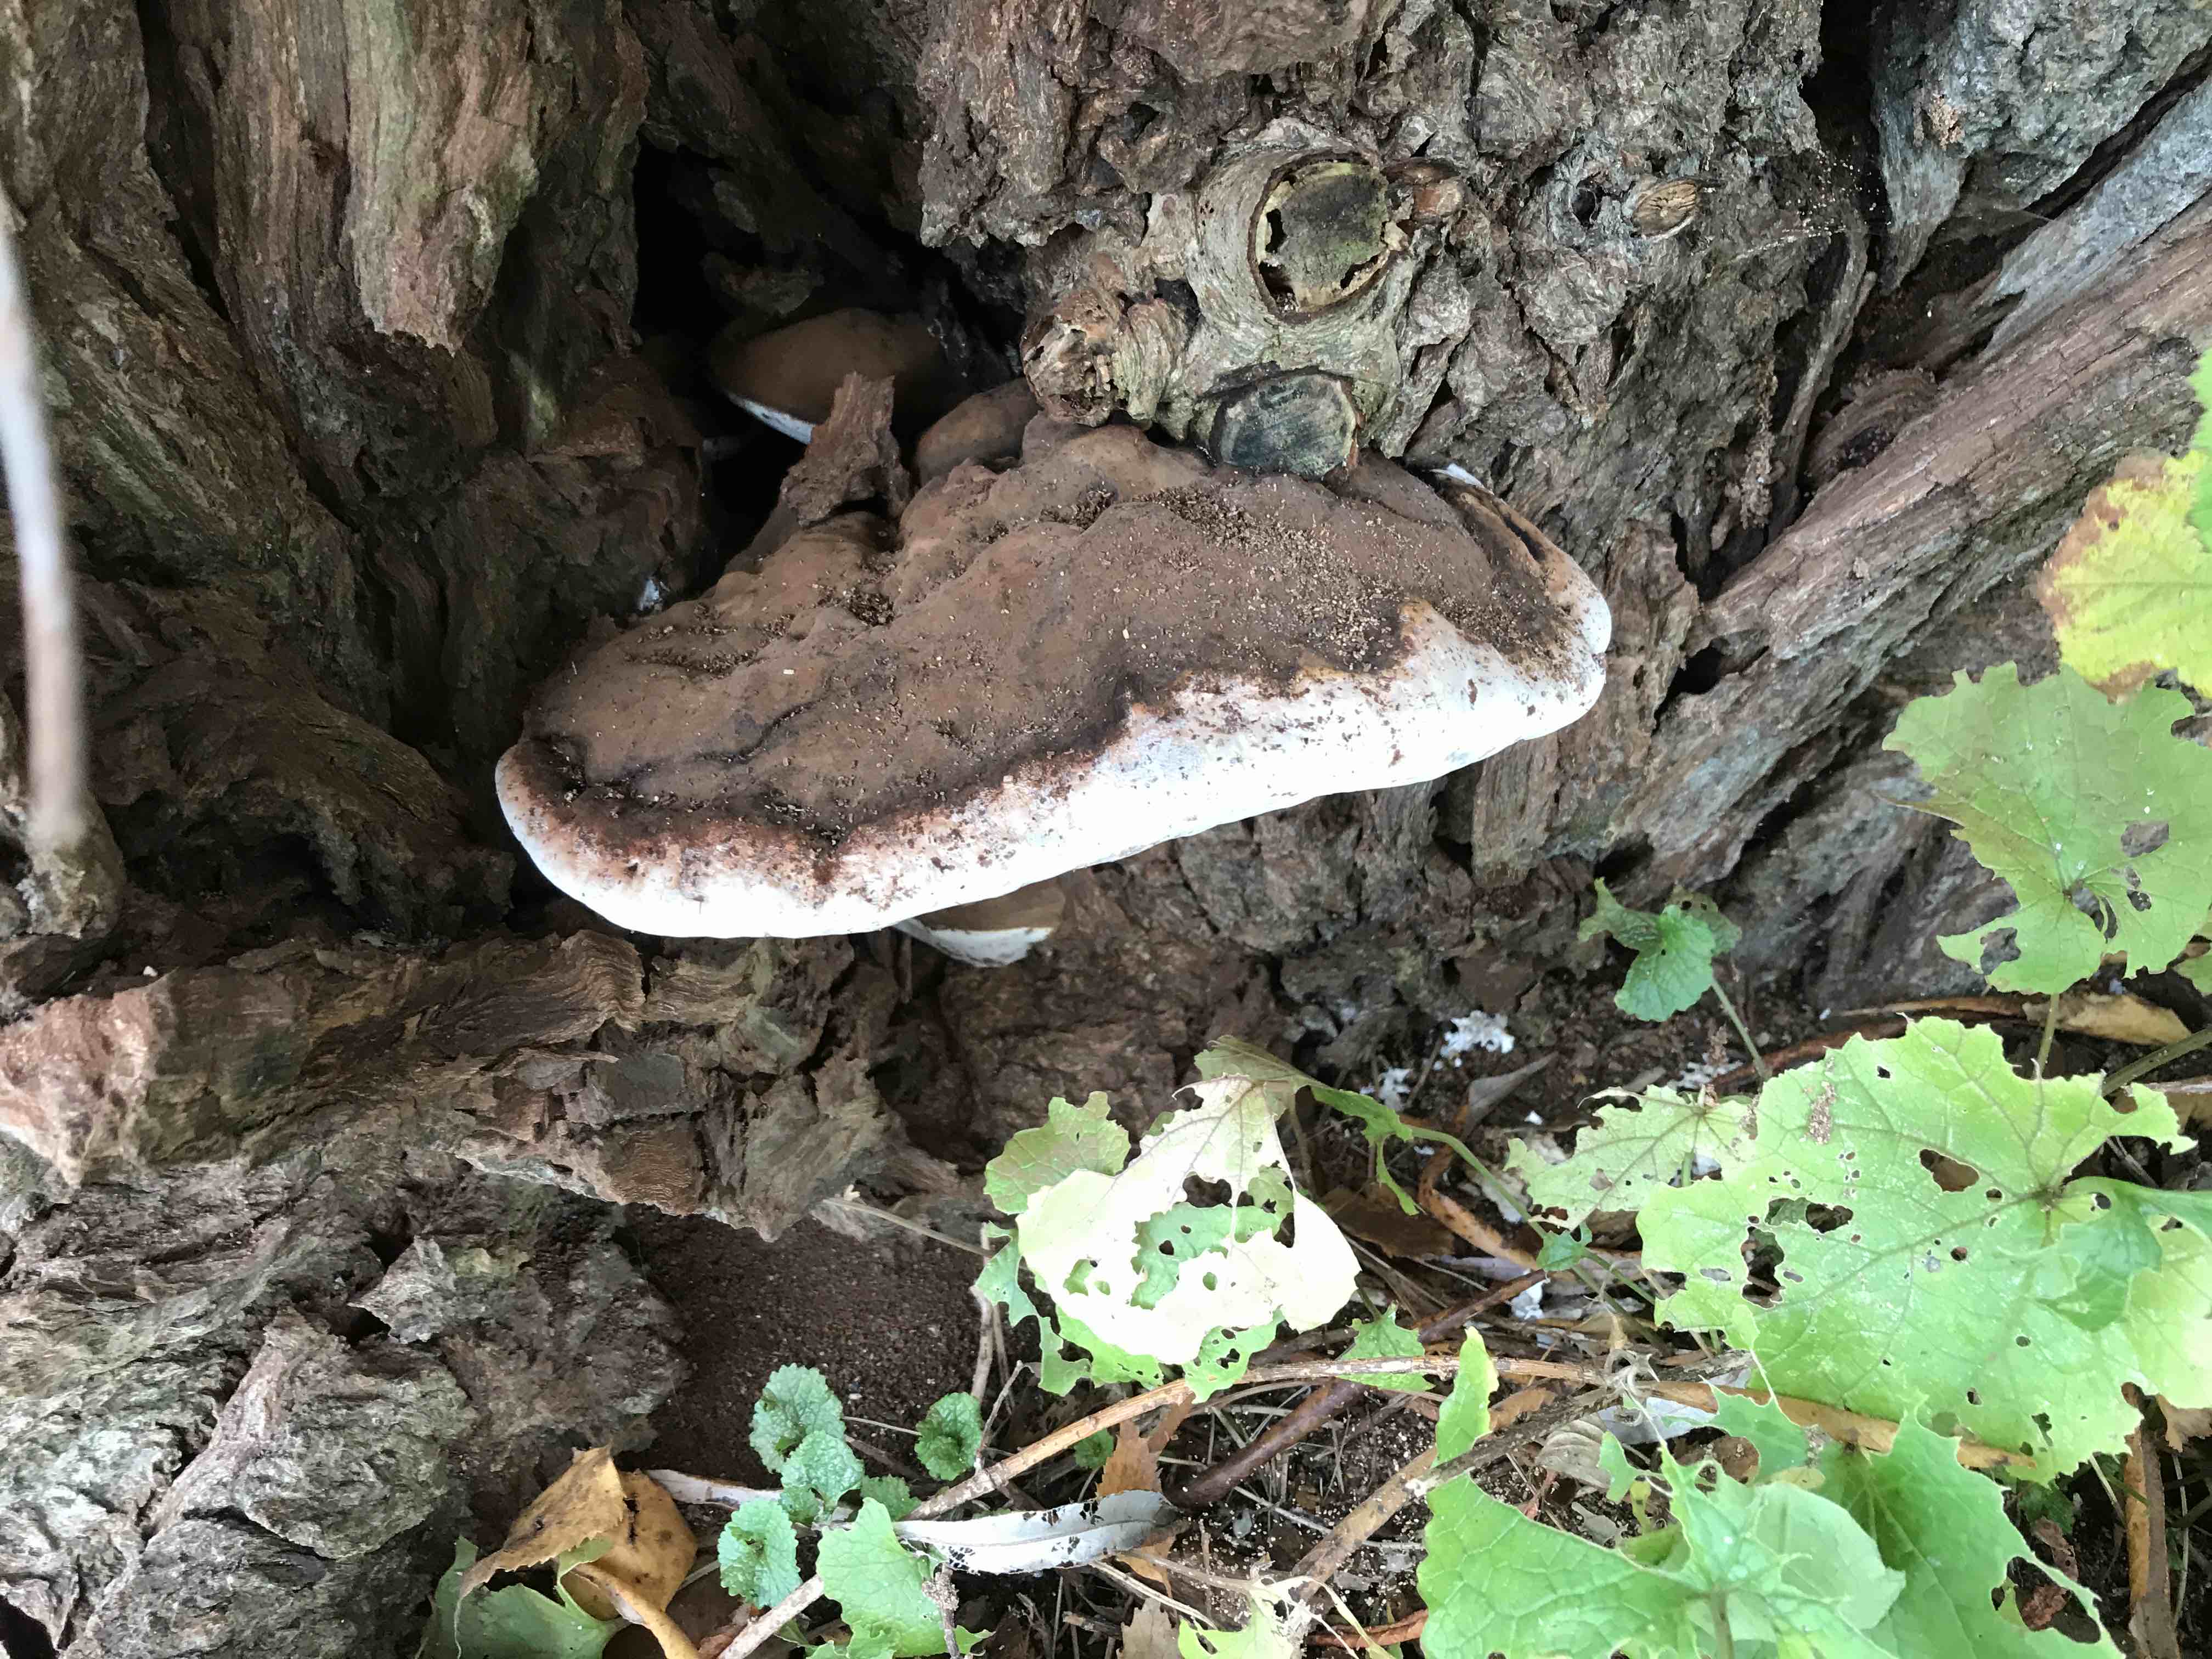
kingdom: Fungi
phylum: Basidiomycota
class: Agaricomycetes
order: Polyporales
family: Polyporaceae
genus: Ganoderma
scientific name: Ganoderma applanatum
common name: flad lakporesvamp
